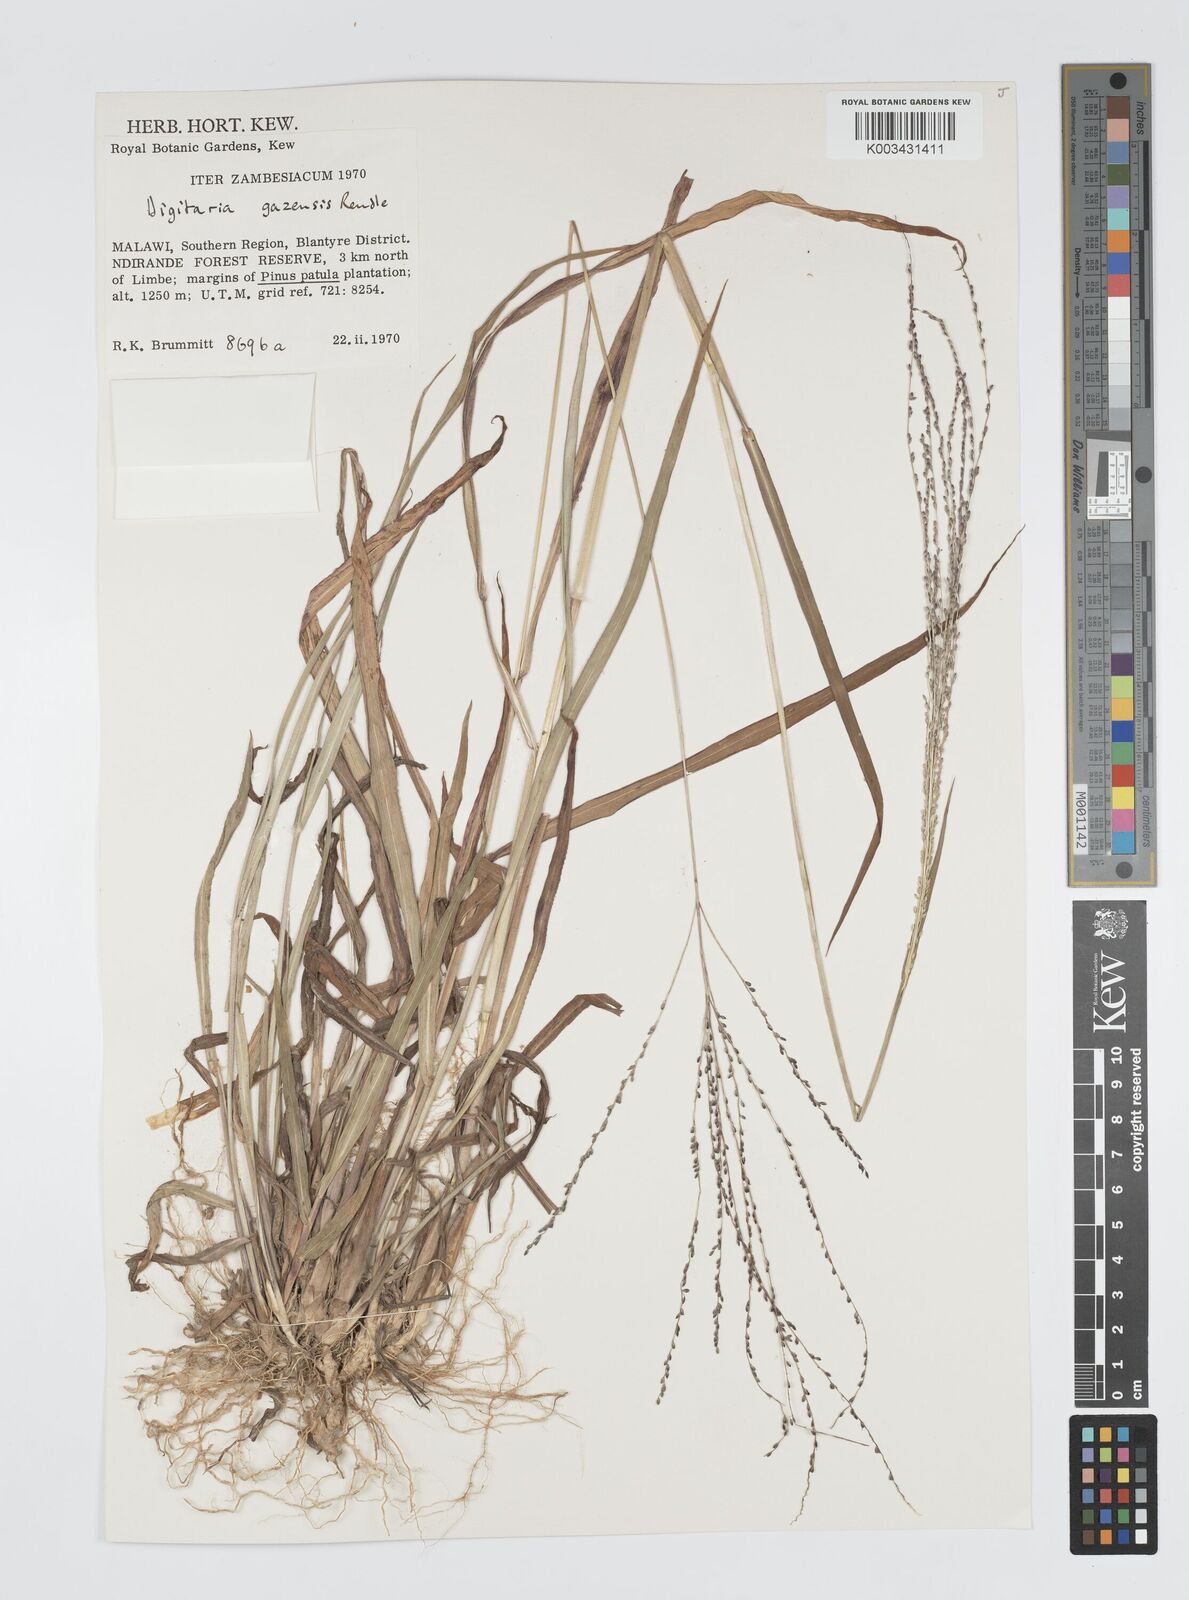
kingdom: Plantae
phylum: Tracheophyta
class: Liliopsida
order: Poales
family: Poaceae
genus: Digitaria
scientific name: Digitaria gazensis
